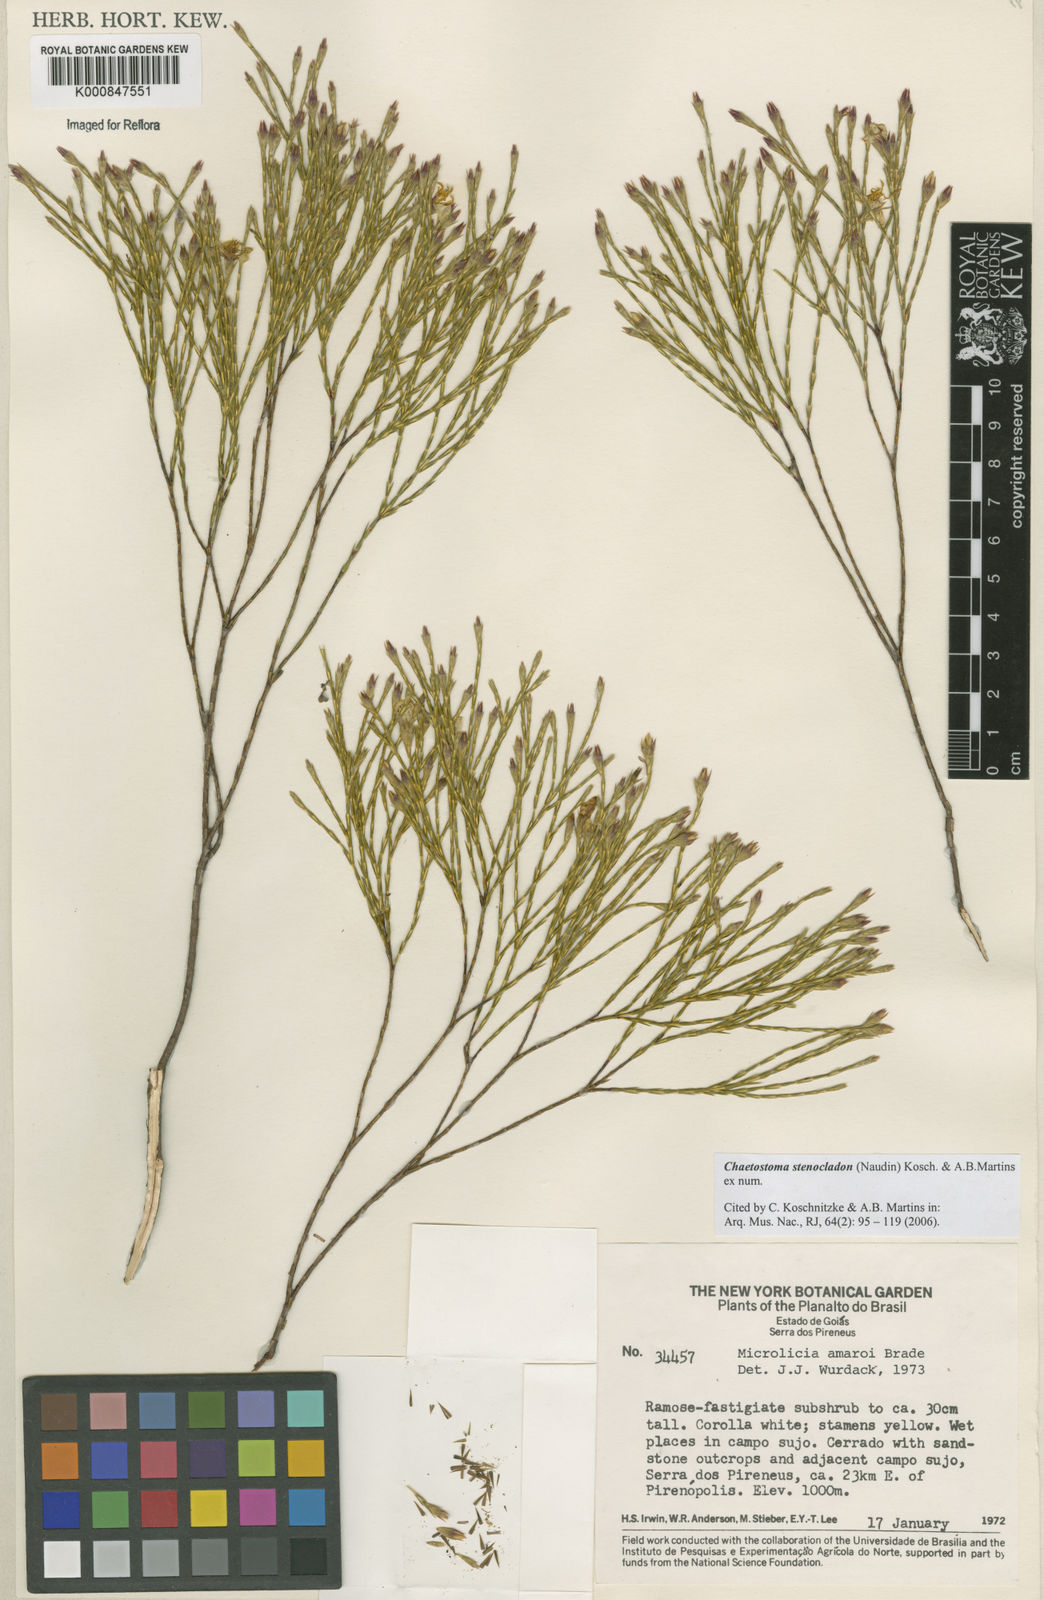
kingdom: Plantae
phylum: Tracheophyta
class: Magnoliopsida
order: Myrtales
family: Melastomataceae
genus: Microlicia
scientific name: Microlicia stenocladon
